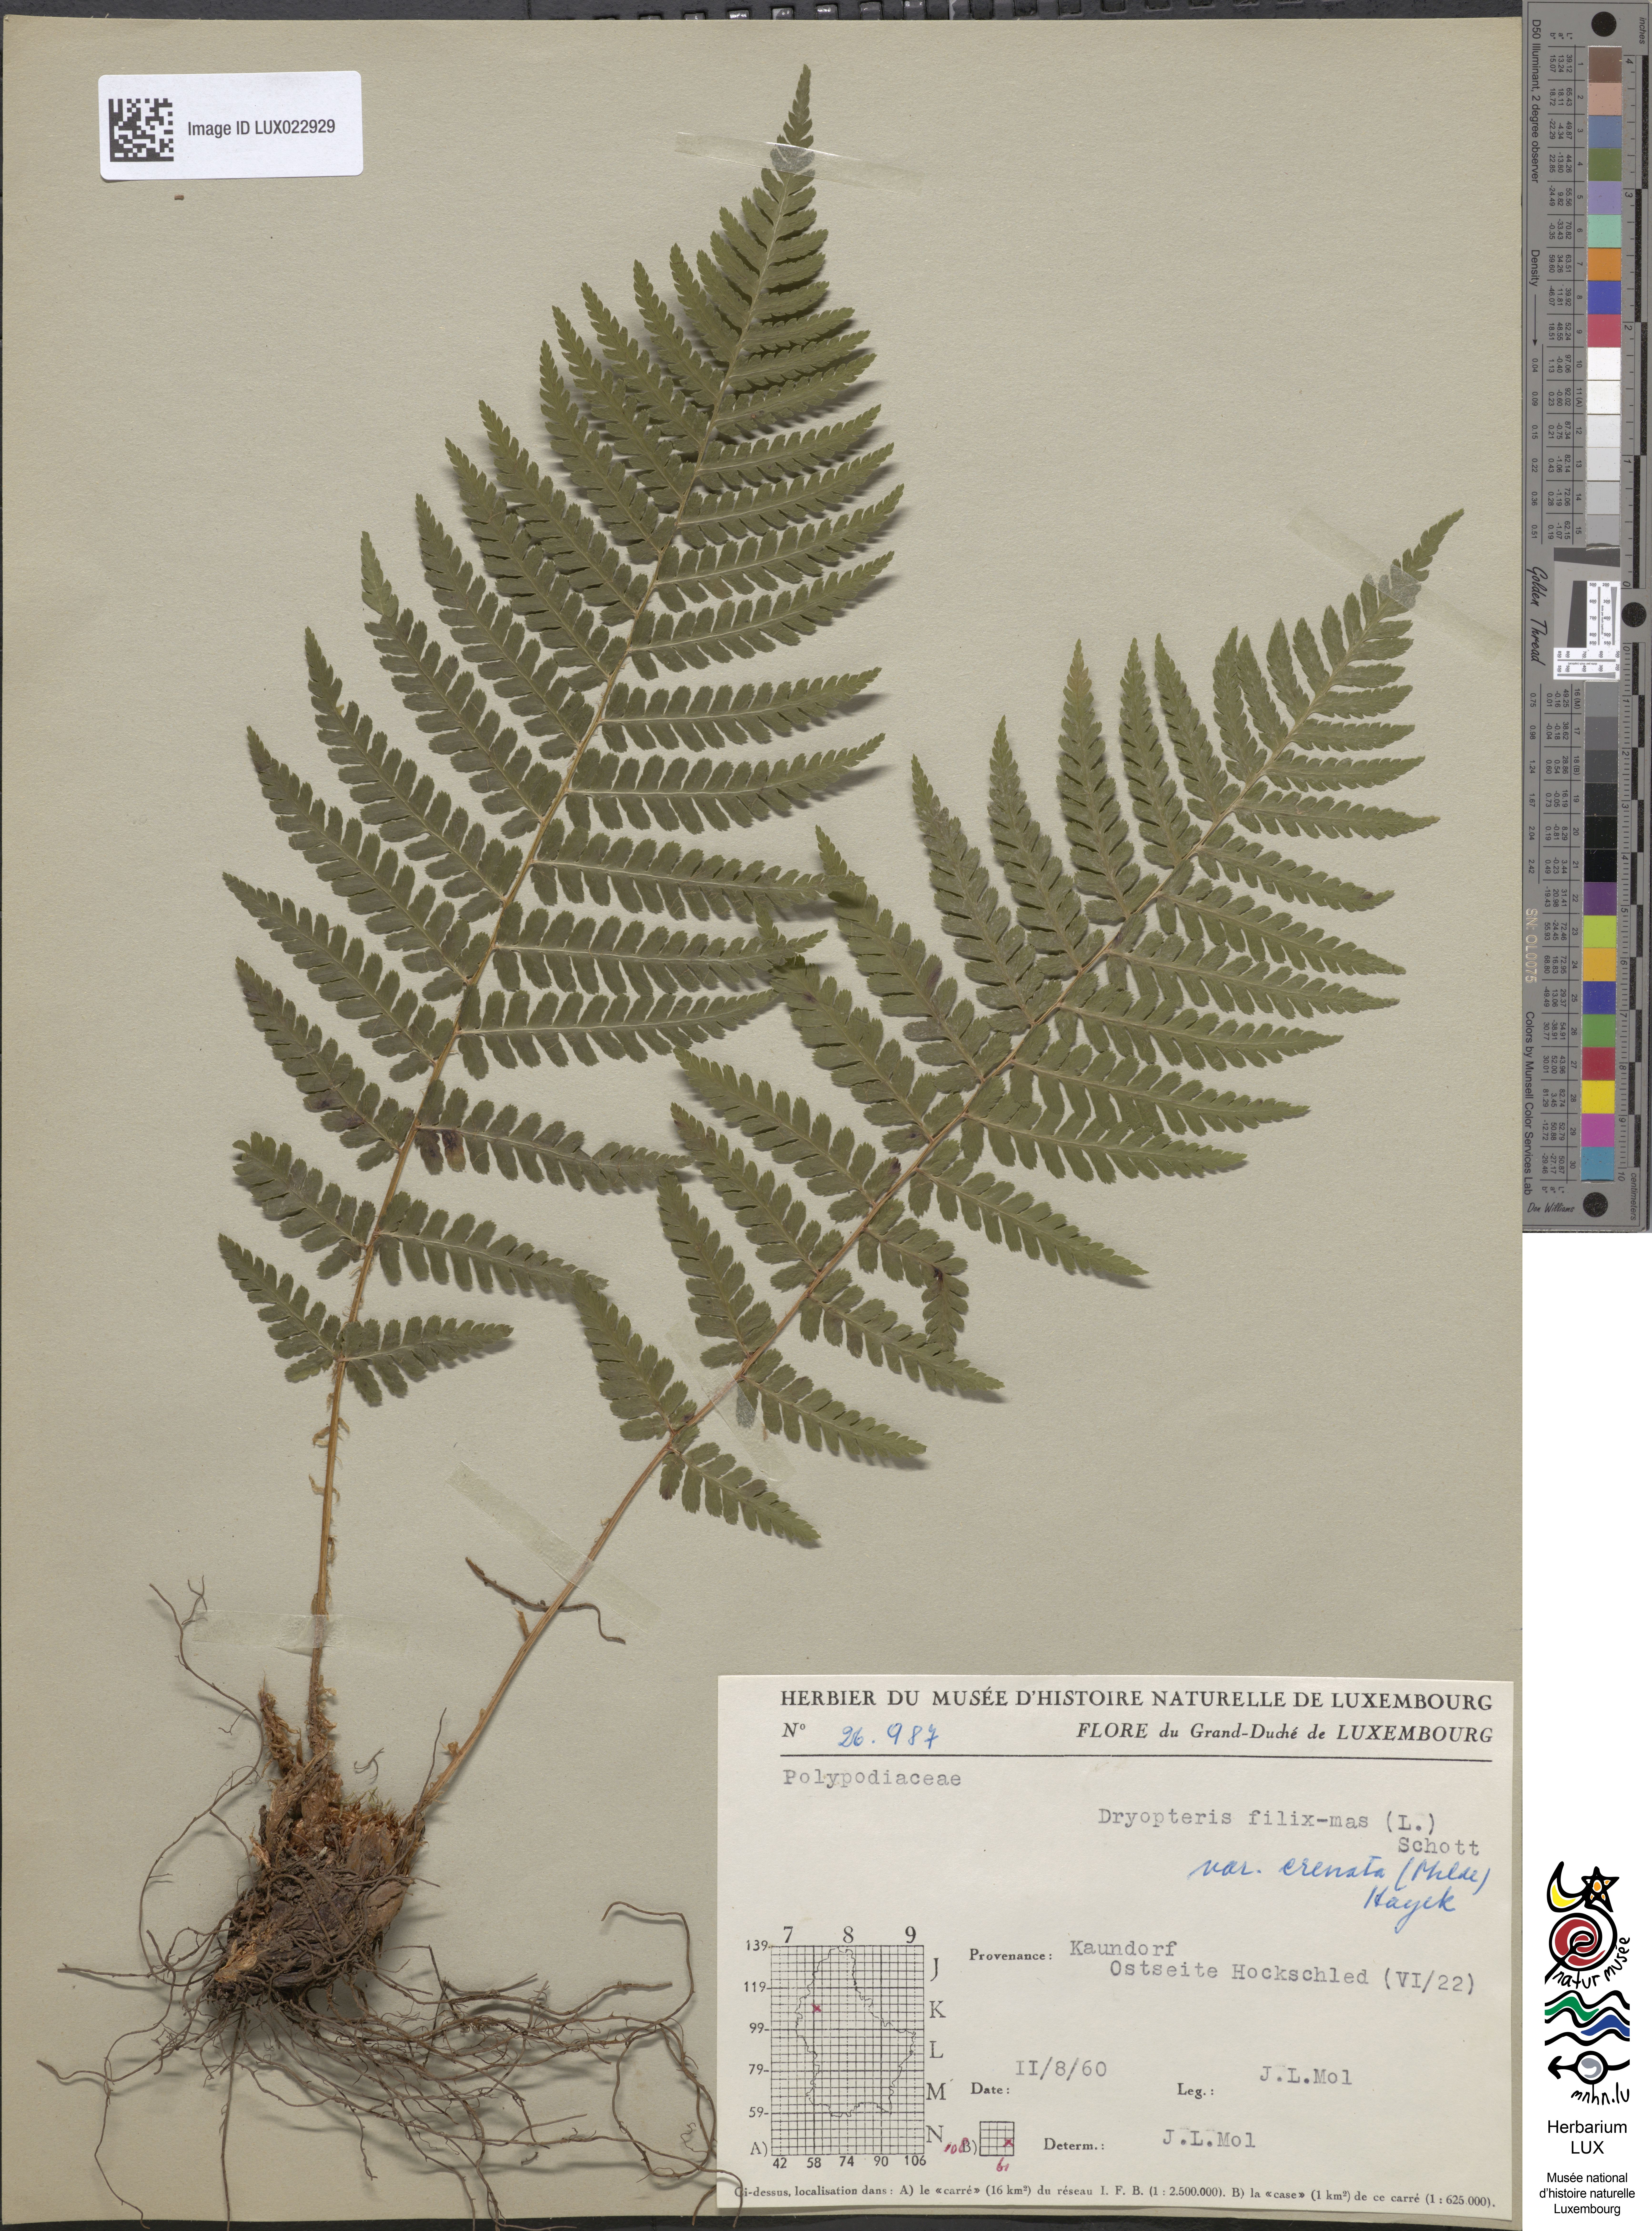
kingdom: Plantae
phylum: Tracheophyta
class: Polypodiopsida
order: Polypodiales
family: Dryopteridaceae
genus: Dryopteris
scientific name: Dryopteris filix-mas
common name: Male fern
